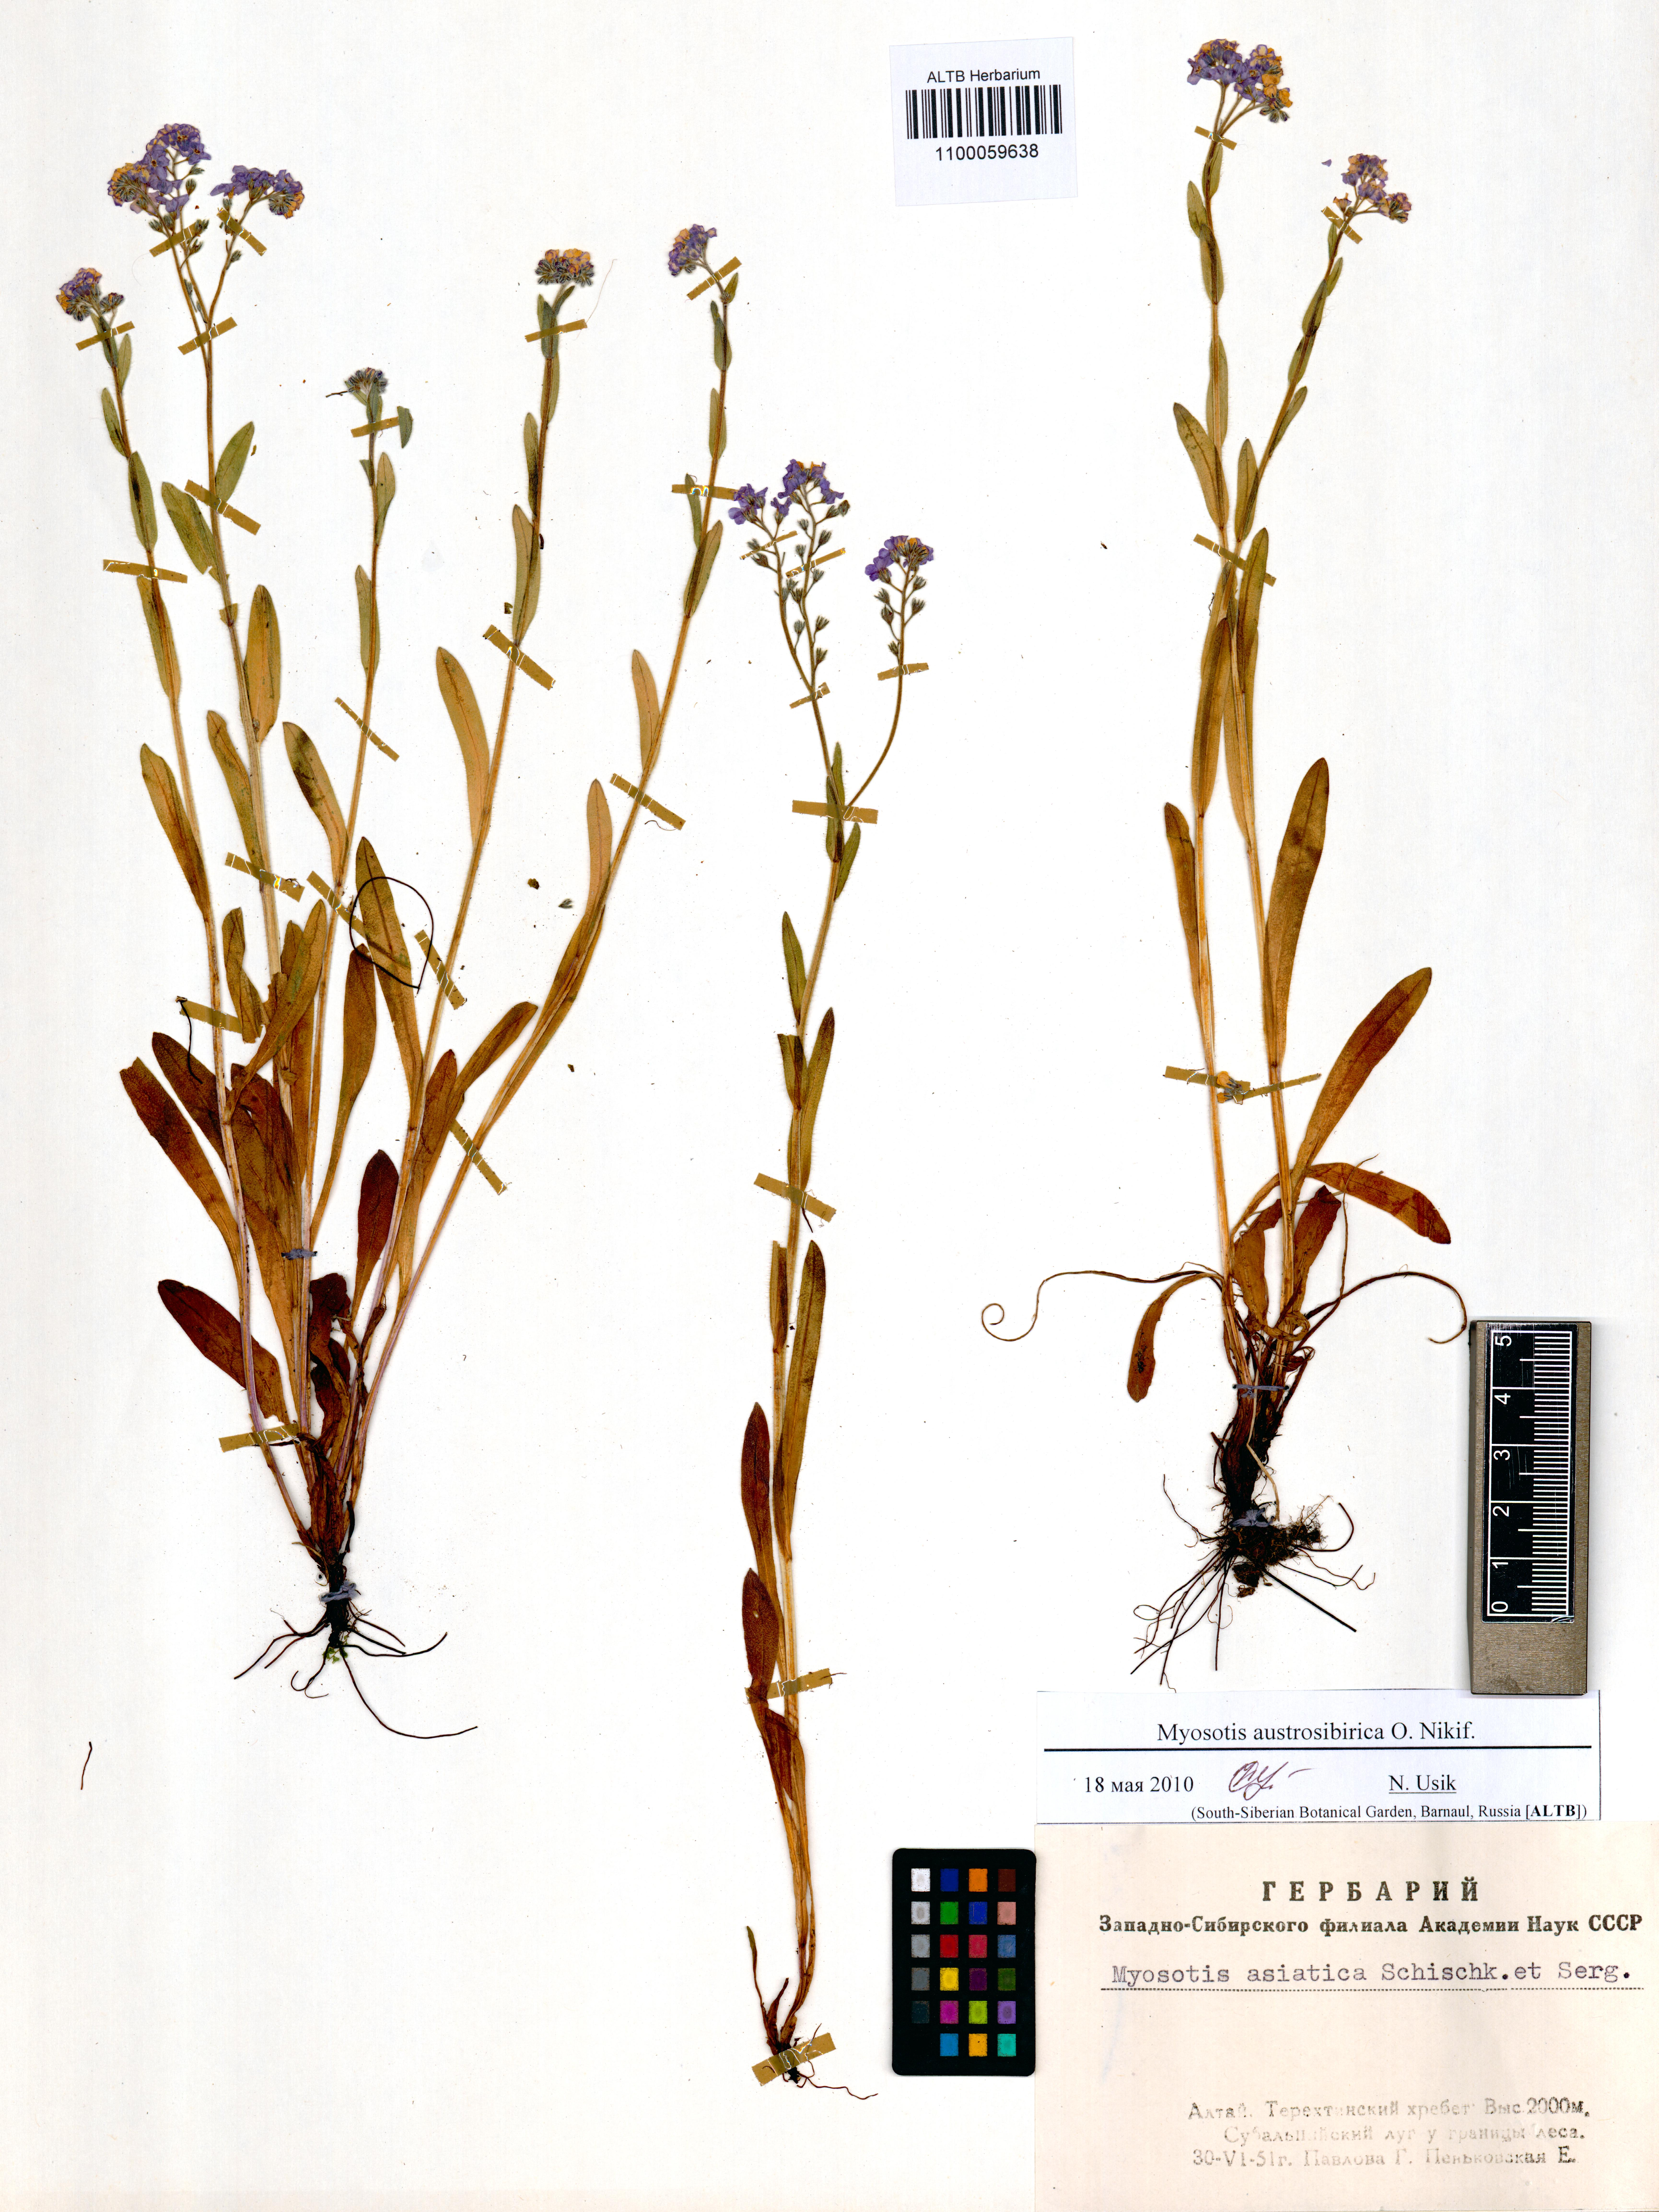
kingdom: Plantae
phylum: Tracheophyta
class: Magnoliopsida
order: Boraginales
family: Boraginaceae
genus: Myosotis
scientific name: Myosotis austrosibirica
